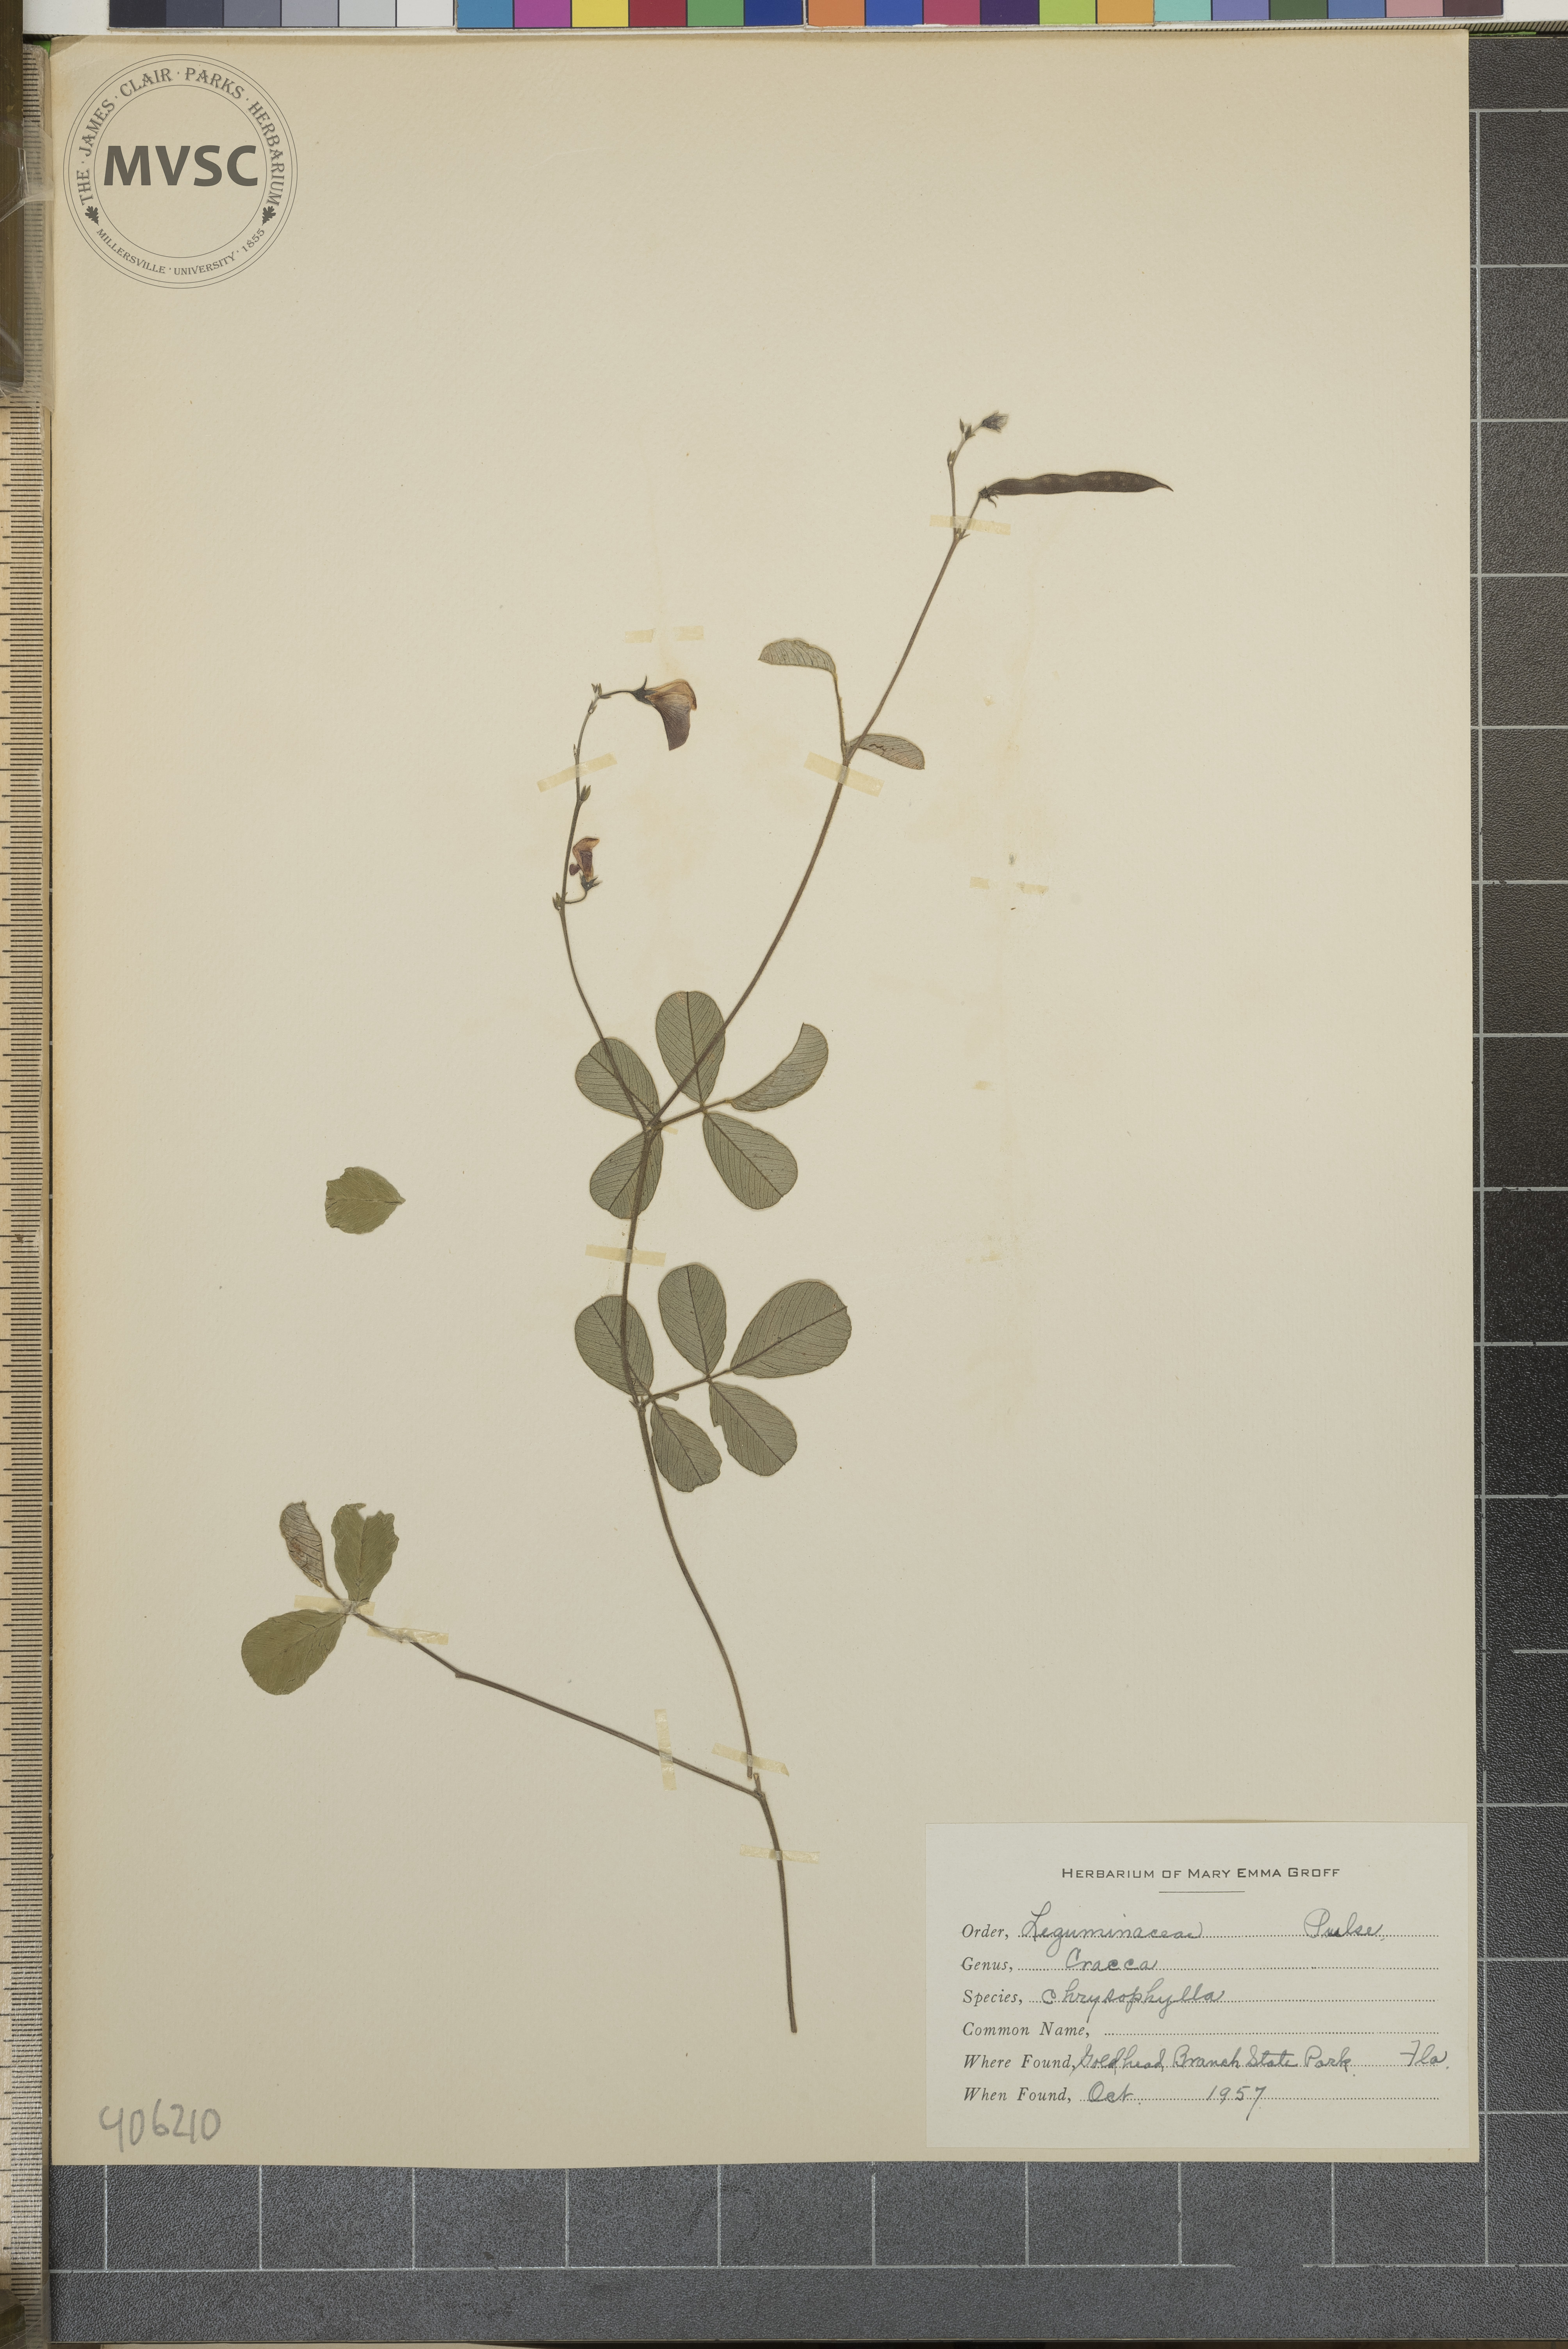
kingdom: Plantae
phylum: Tracheophyta
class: Magnoliopsida
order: Fabales
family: Fabaceae
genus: Tephrosia
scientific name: Tephrosia chrysophylla
